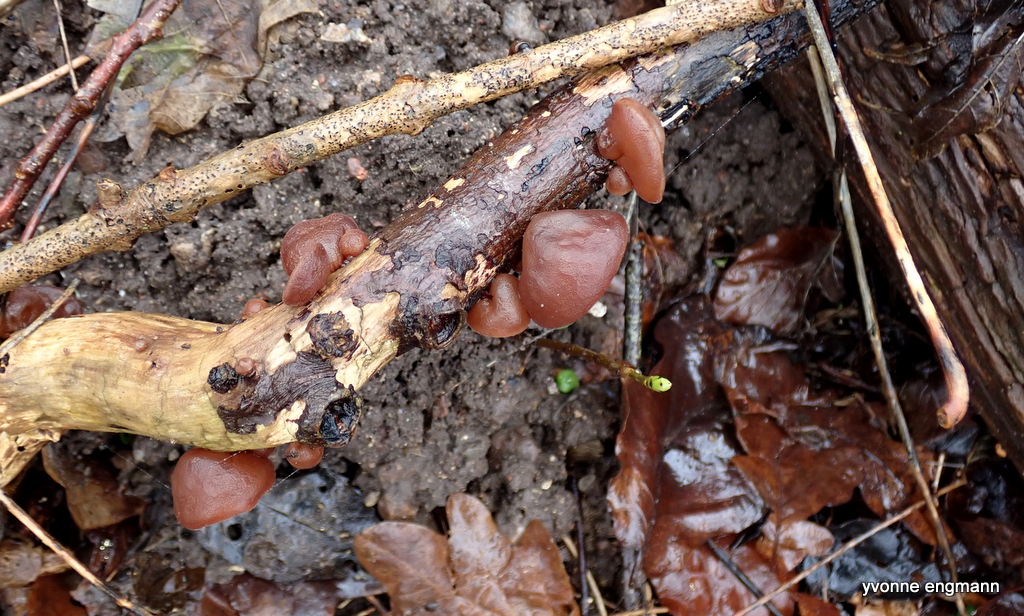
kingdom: Fungi
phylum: Basidiomycota
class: Agaricomycetes
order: Auriculariales
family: Auriculariaceae
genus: Auricularia
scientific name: Auricularia auricula-judae
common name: almindelig judasøre
